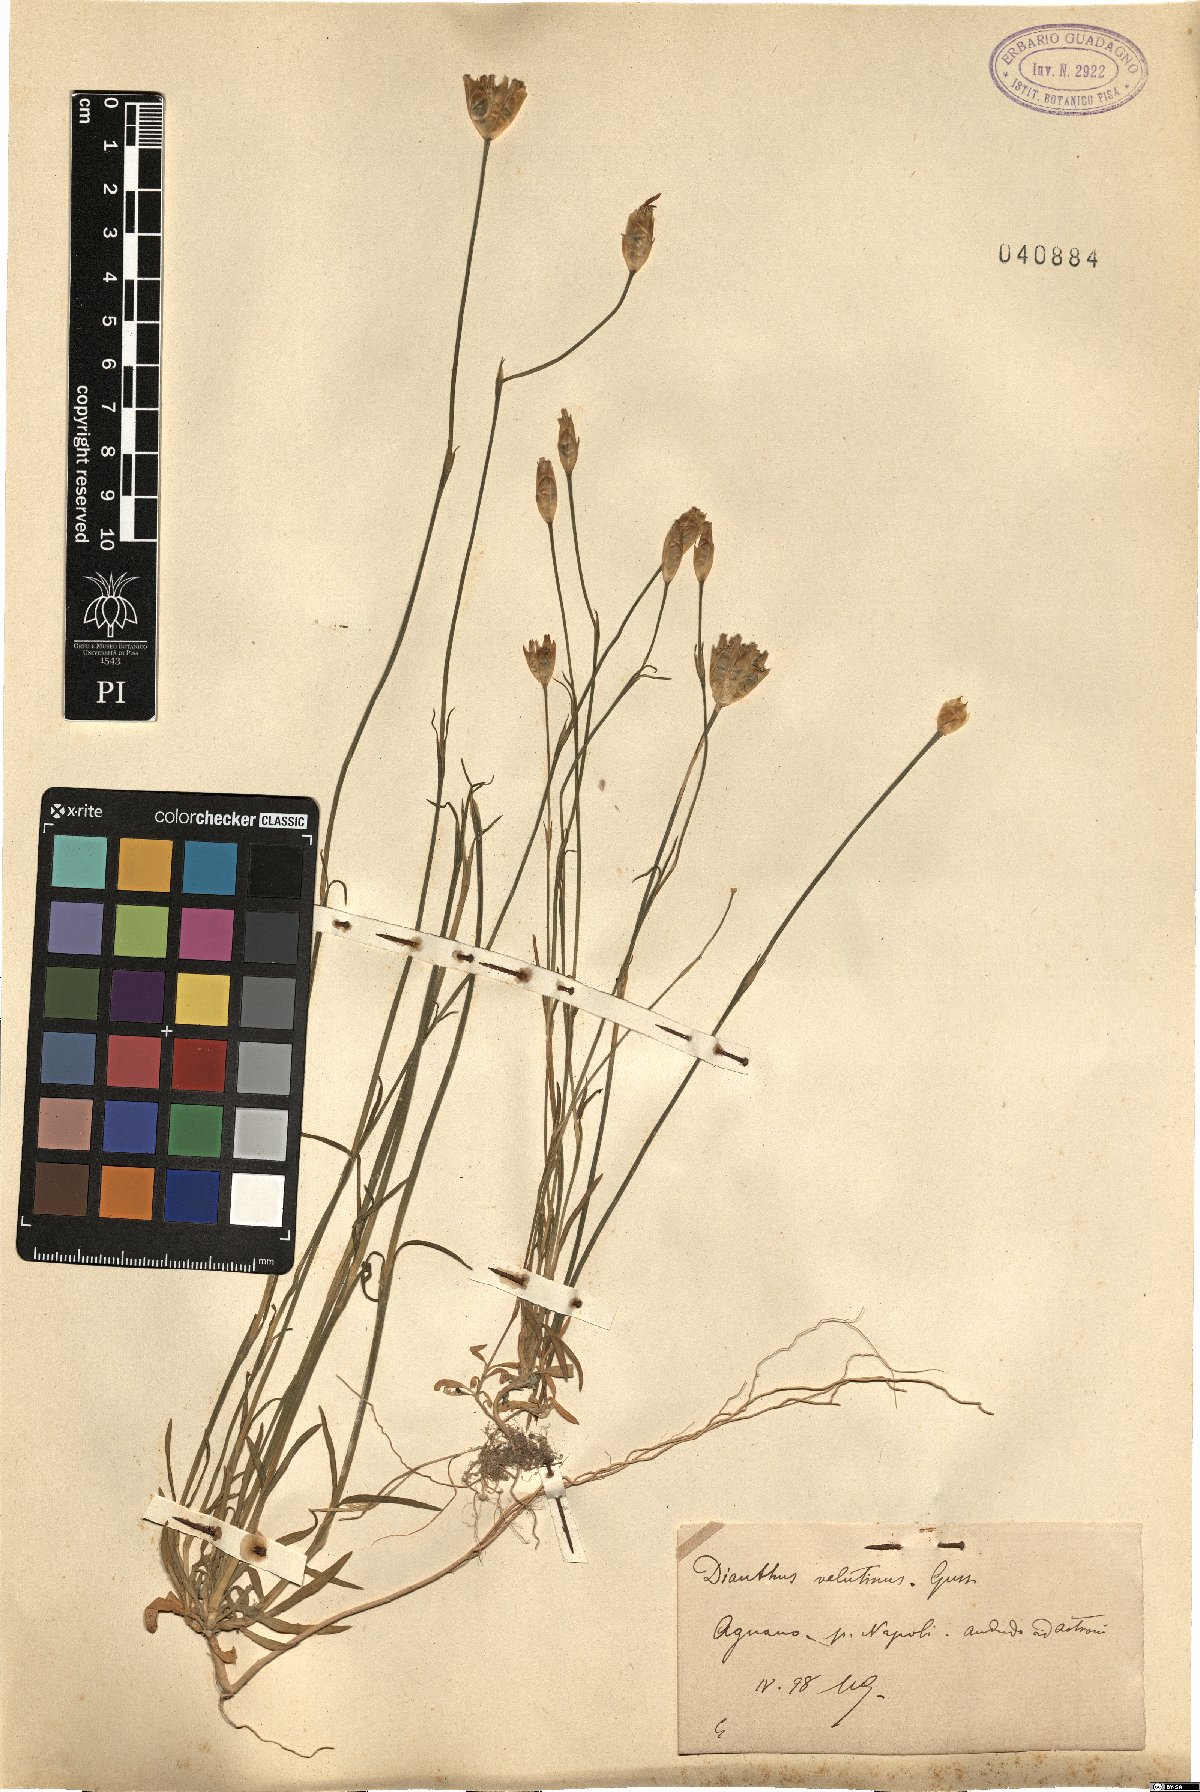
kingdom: Plantae
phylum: Tracheophyta
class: Magnoliopsida
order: Caryophyllales
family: Caryophyllaceae
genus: Petrorhagia
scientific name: Petrorhagia dubia
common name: Hairypink
